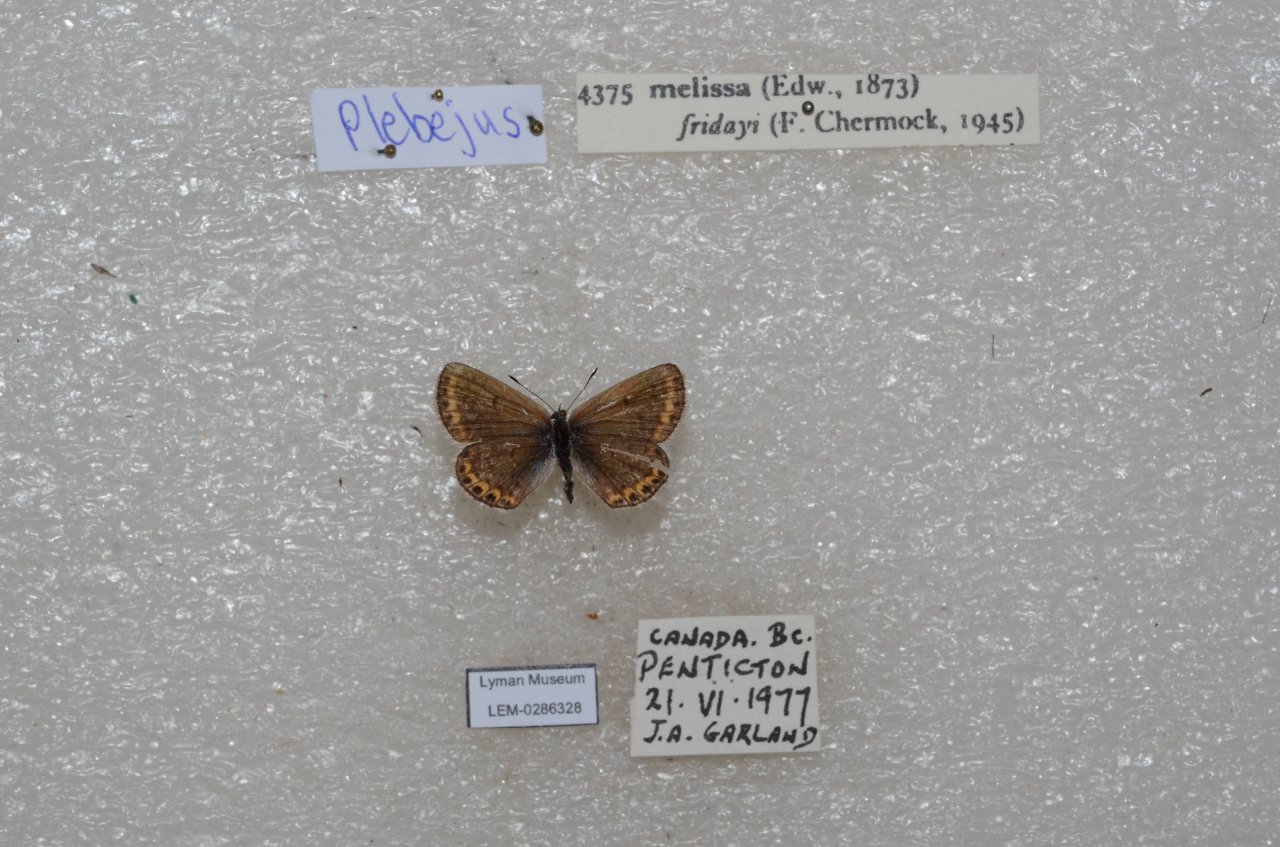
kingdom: Animalia
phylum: Arthropoda
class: Insecta
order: Lepidoptera
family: Lycaenidae
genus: Lycaeides
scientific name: Lycaeides melissa
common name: Melissa Blue
